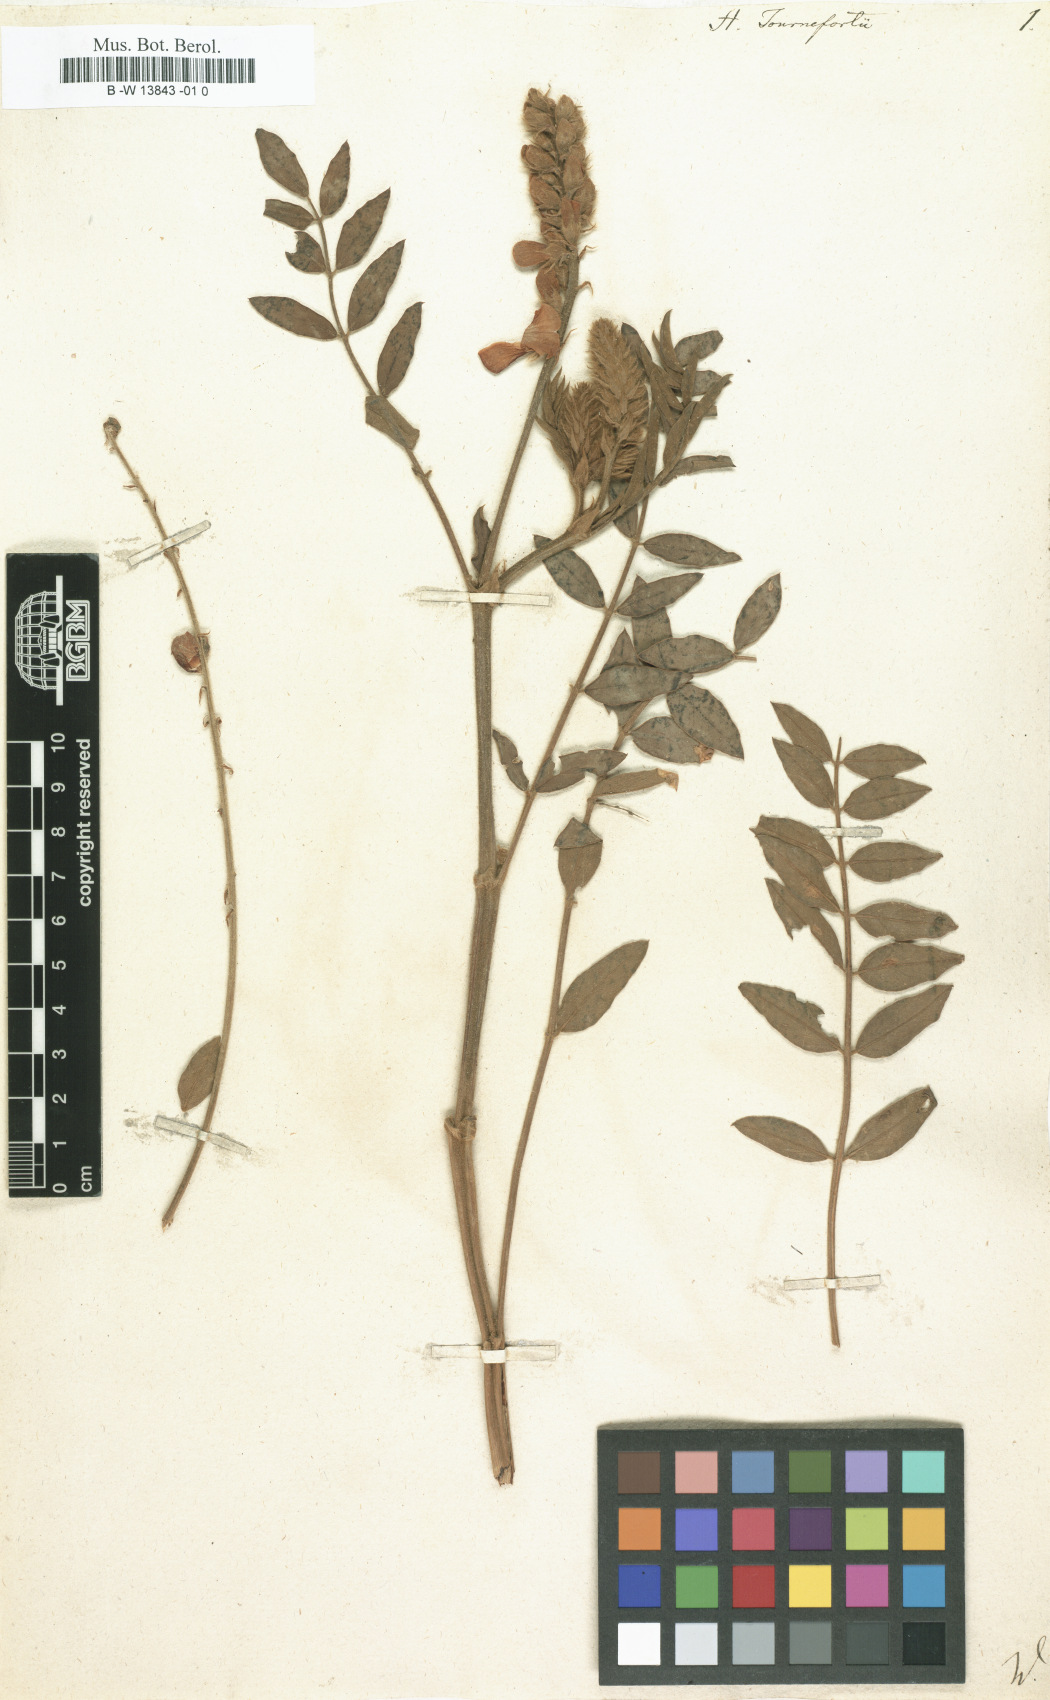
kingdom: Plantae
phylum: Tracheophyta
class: Magnoliopsida
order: Fabales
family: Fabaceae
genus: Onobrychis
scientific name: Onobrychis tournefortii
